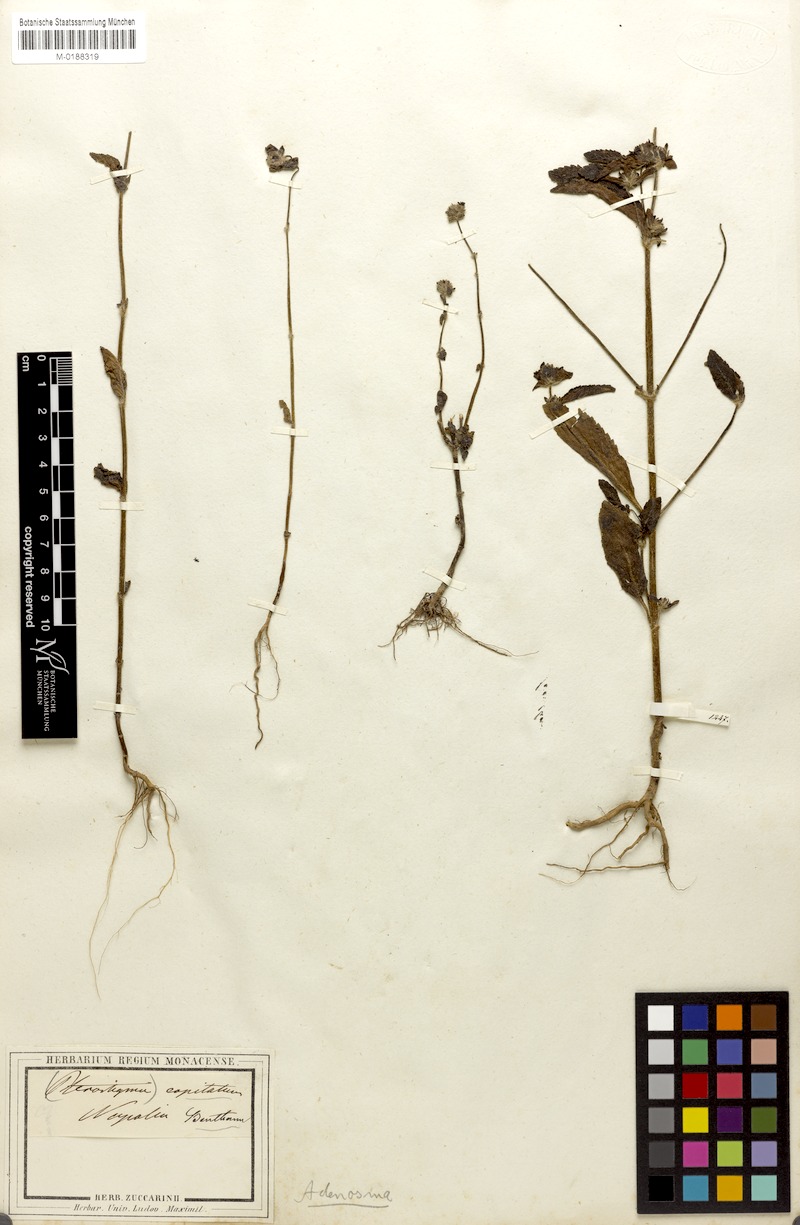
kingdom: Plantae
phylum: Tracheophyta
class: Magnoliopsida
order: Lamiales
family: Plantaginaceae
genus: Adenosma
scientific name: Adenosma indiana
